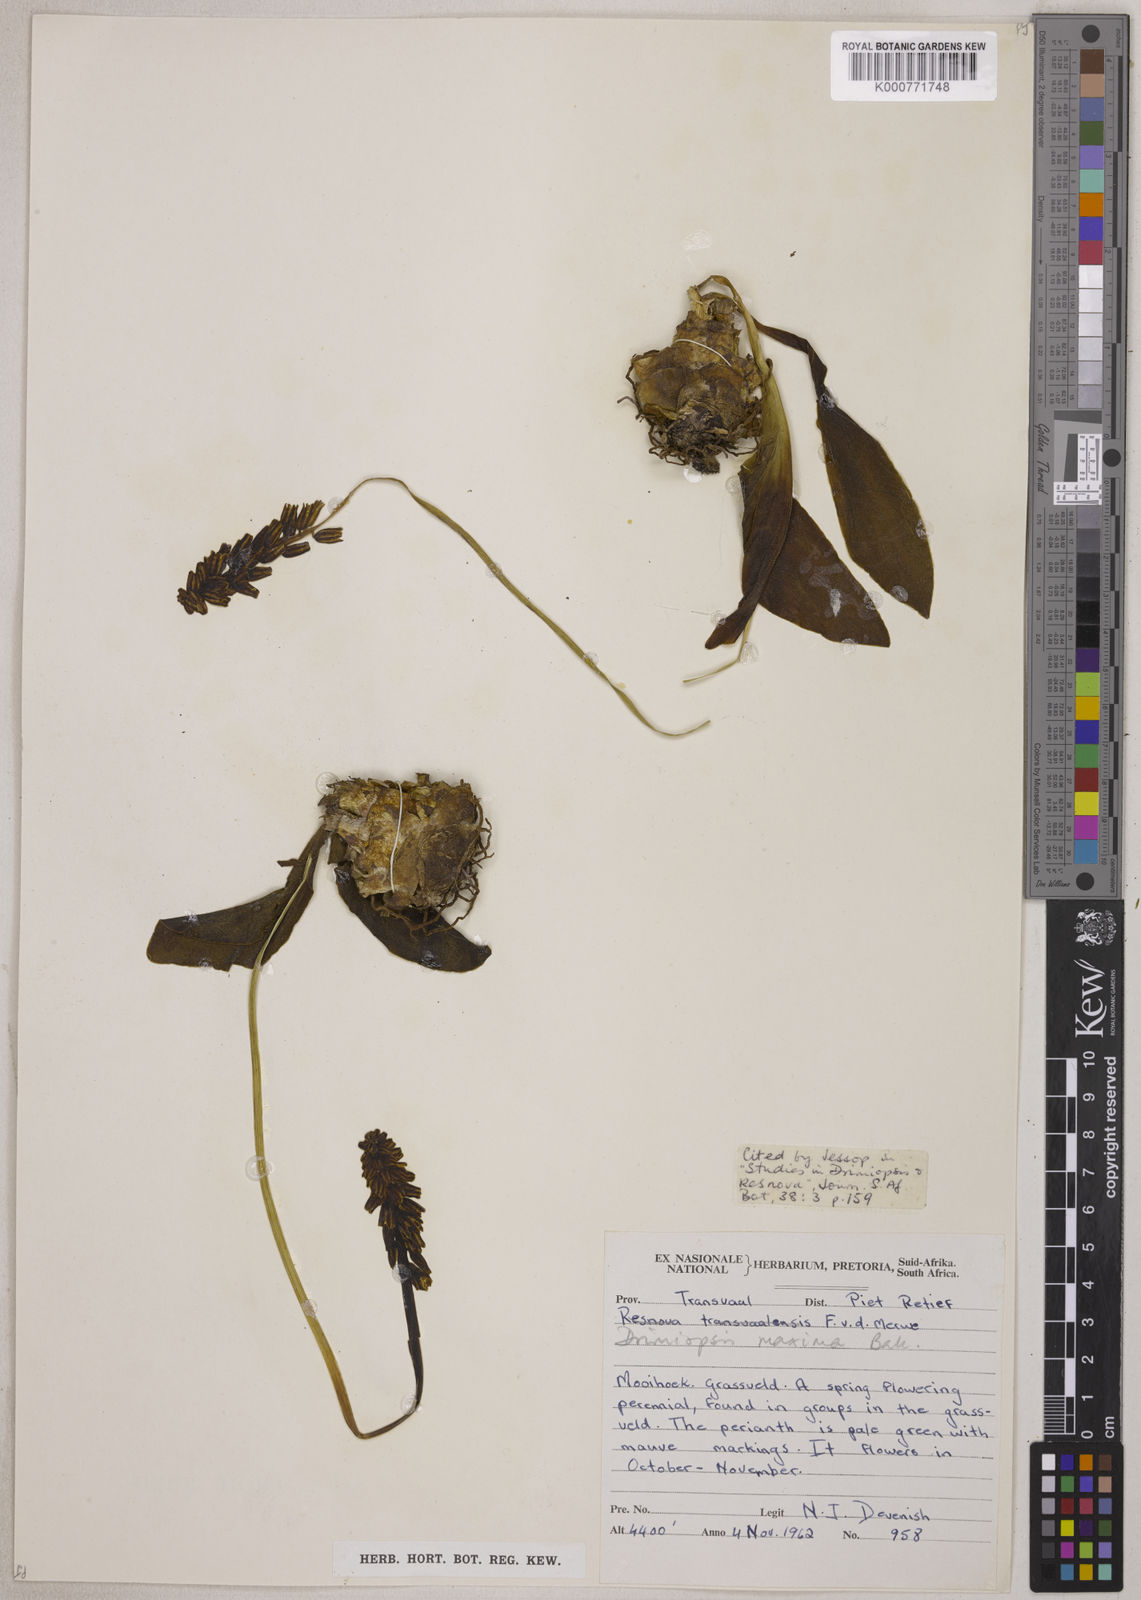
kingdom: Plantae
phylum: Tracheophyta
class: Liliopsida
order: Asparagales
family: Asparagaceae
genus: Resnova
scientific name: Resnova humifusa
